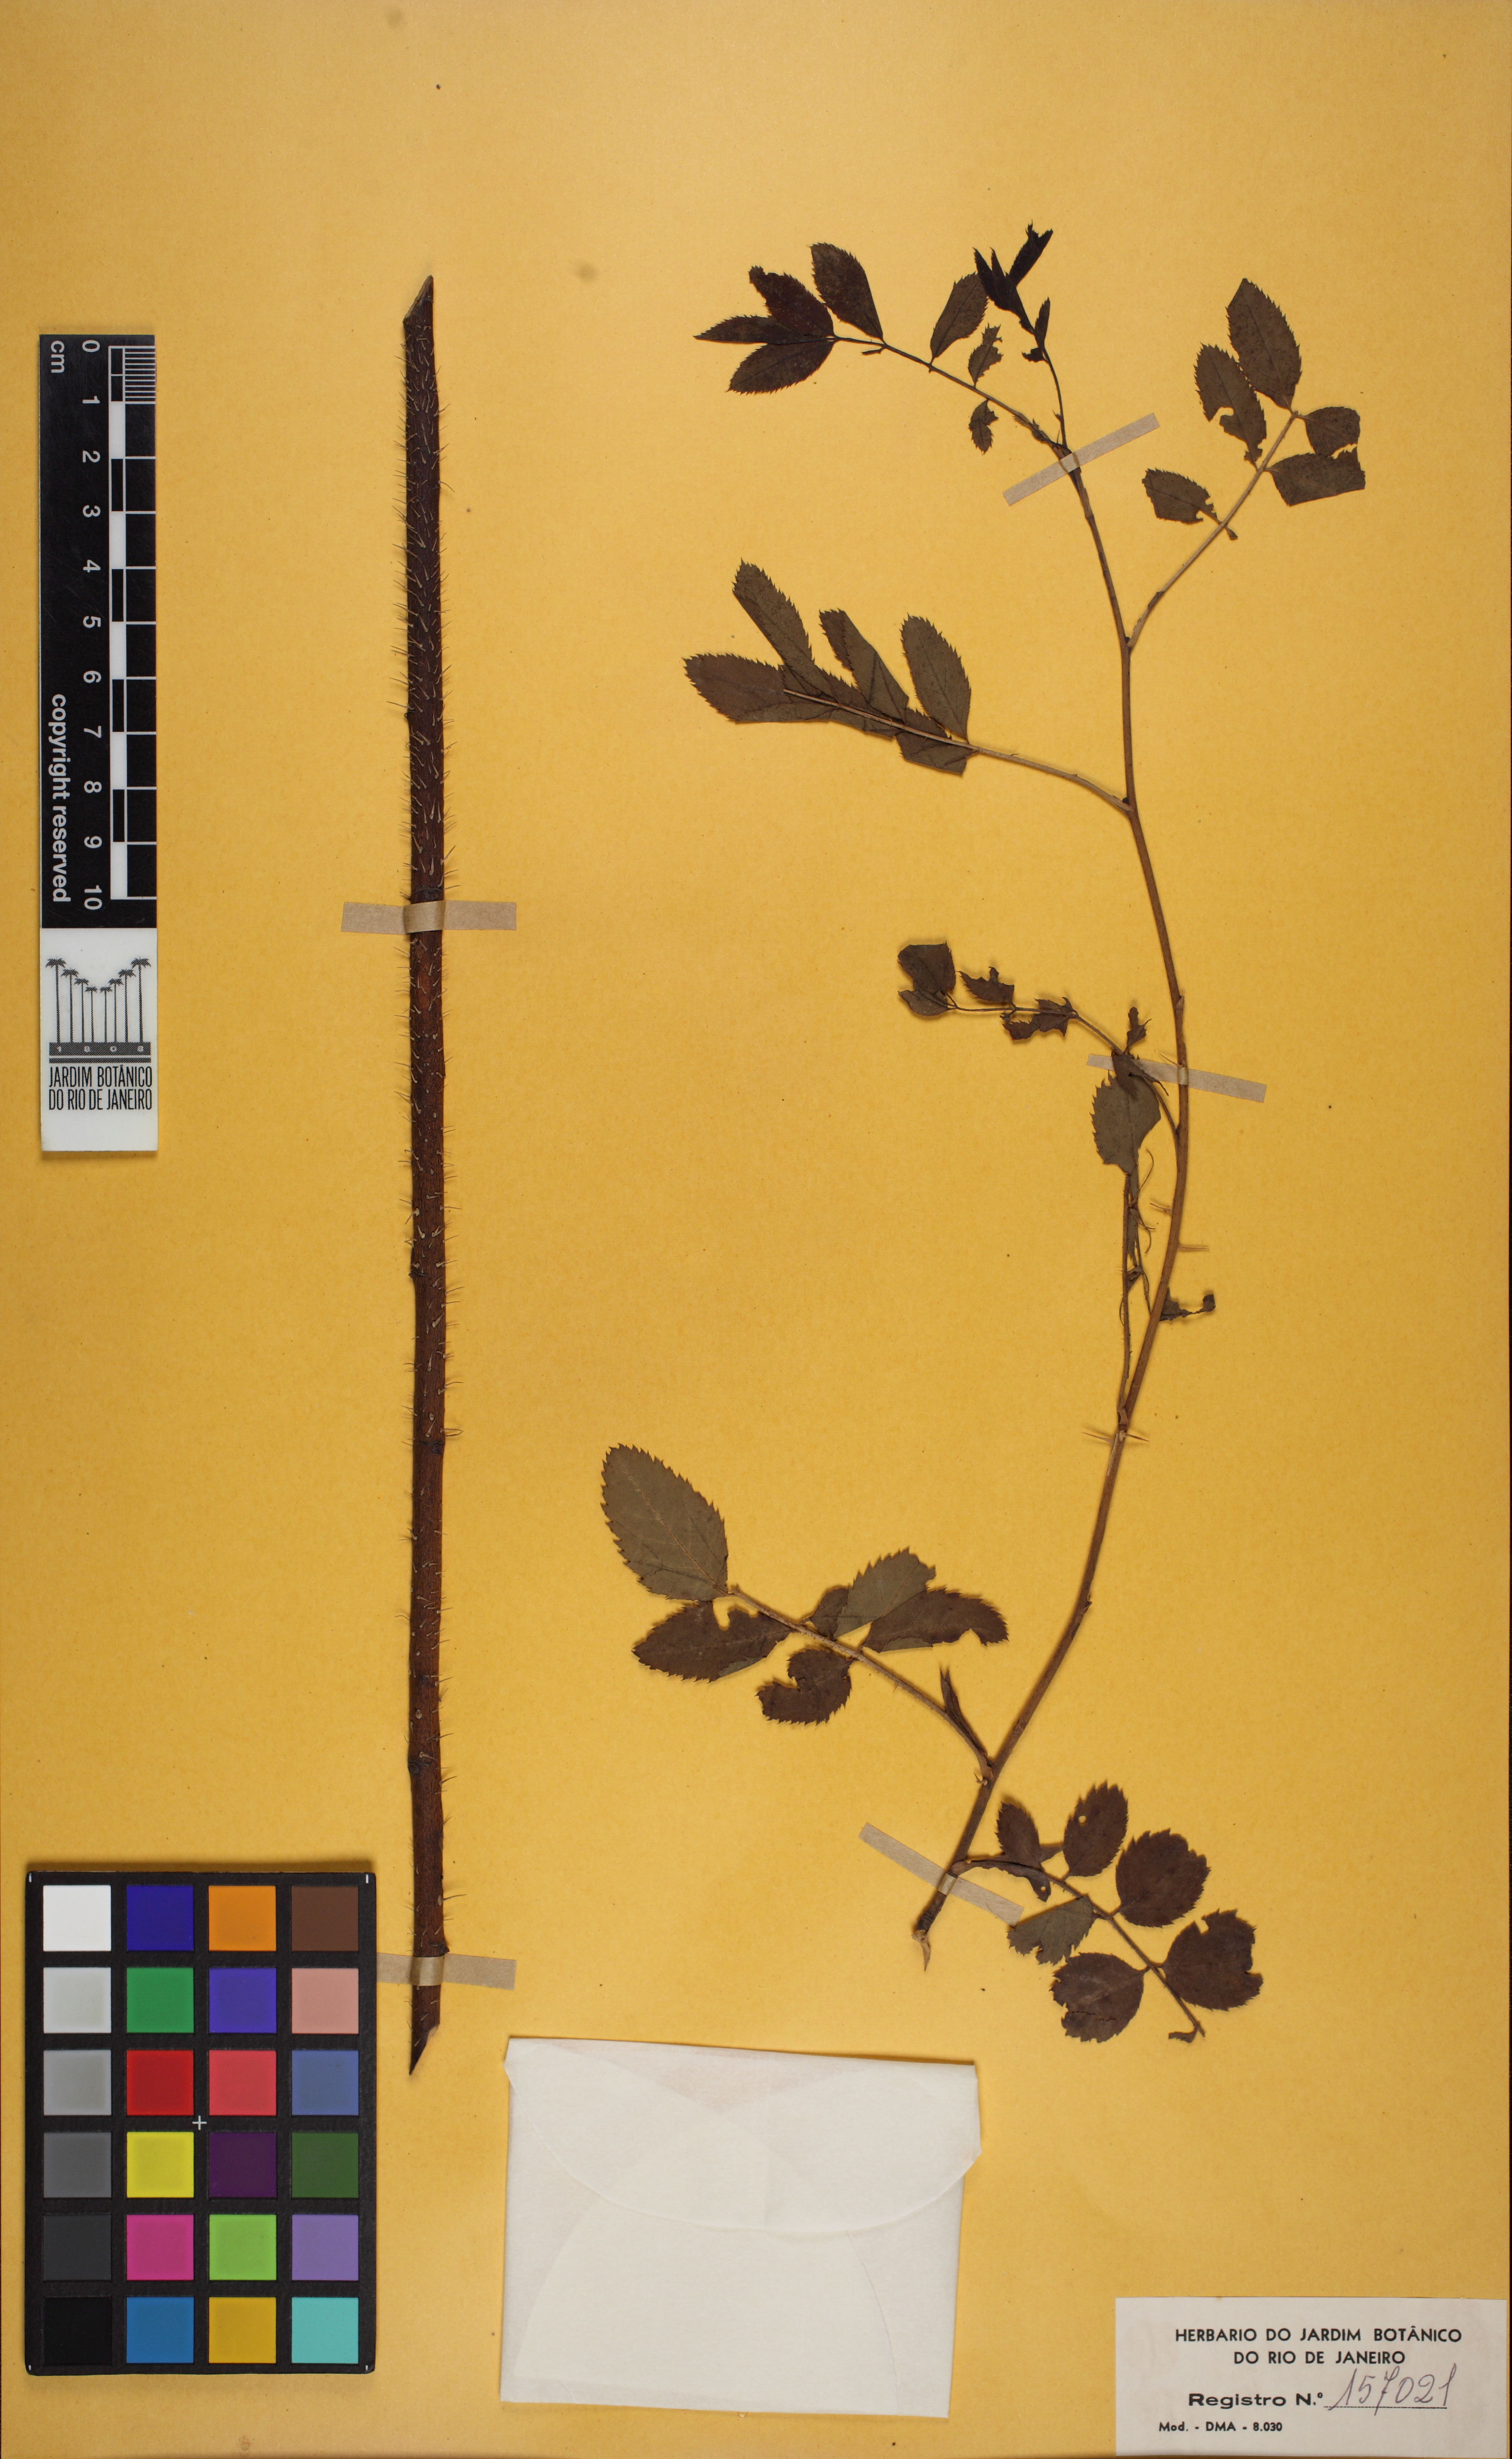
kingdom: Plantae
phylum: Tracheophyta
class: Magnoliopsida
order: Rosales
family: Rosaceae
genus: Rosa
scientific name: Rosa pendulina
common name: Alpine rose
